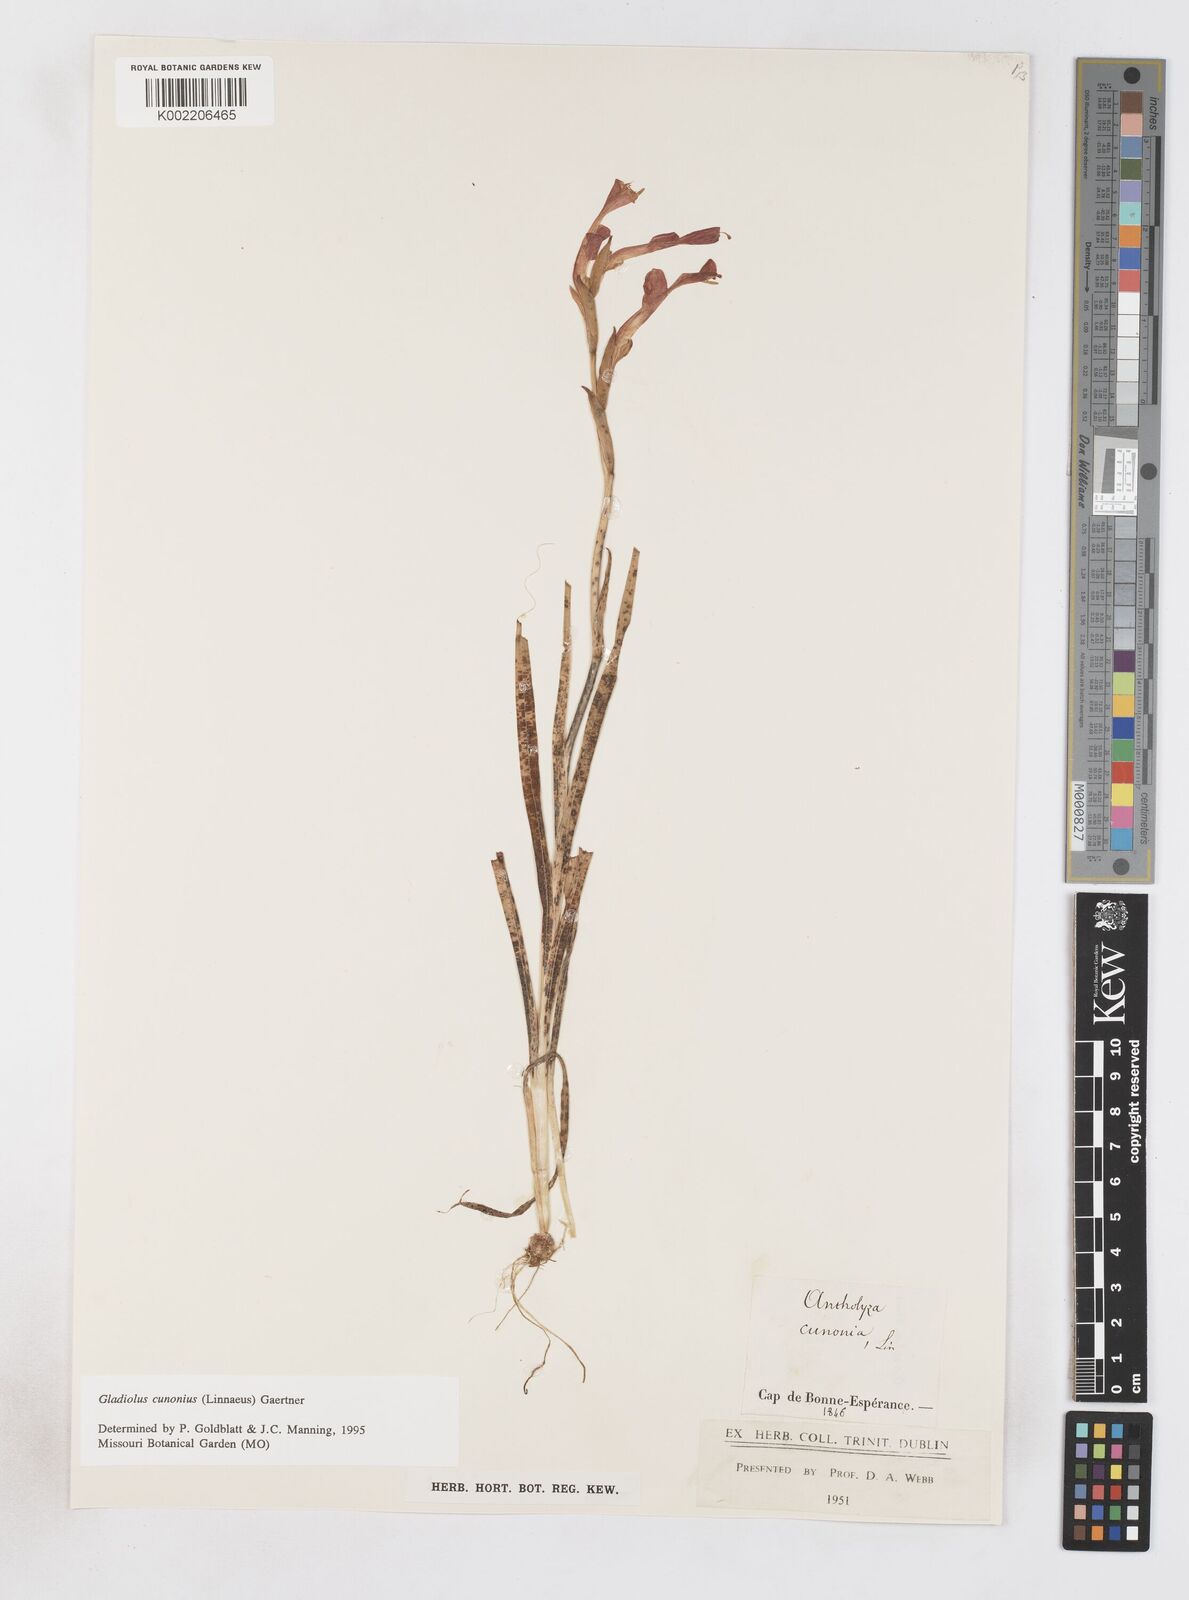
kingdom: Plantae
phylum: Tracheophyta
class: Liliopsida
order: Asparagales
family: Iridaceae
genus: Gladiolus
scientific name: Gladiolus cunonius
